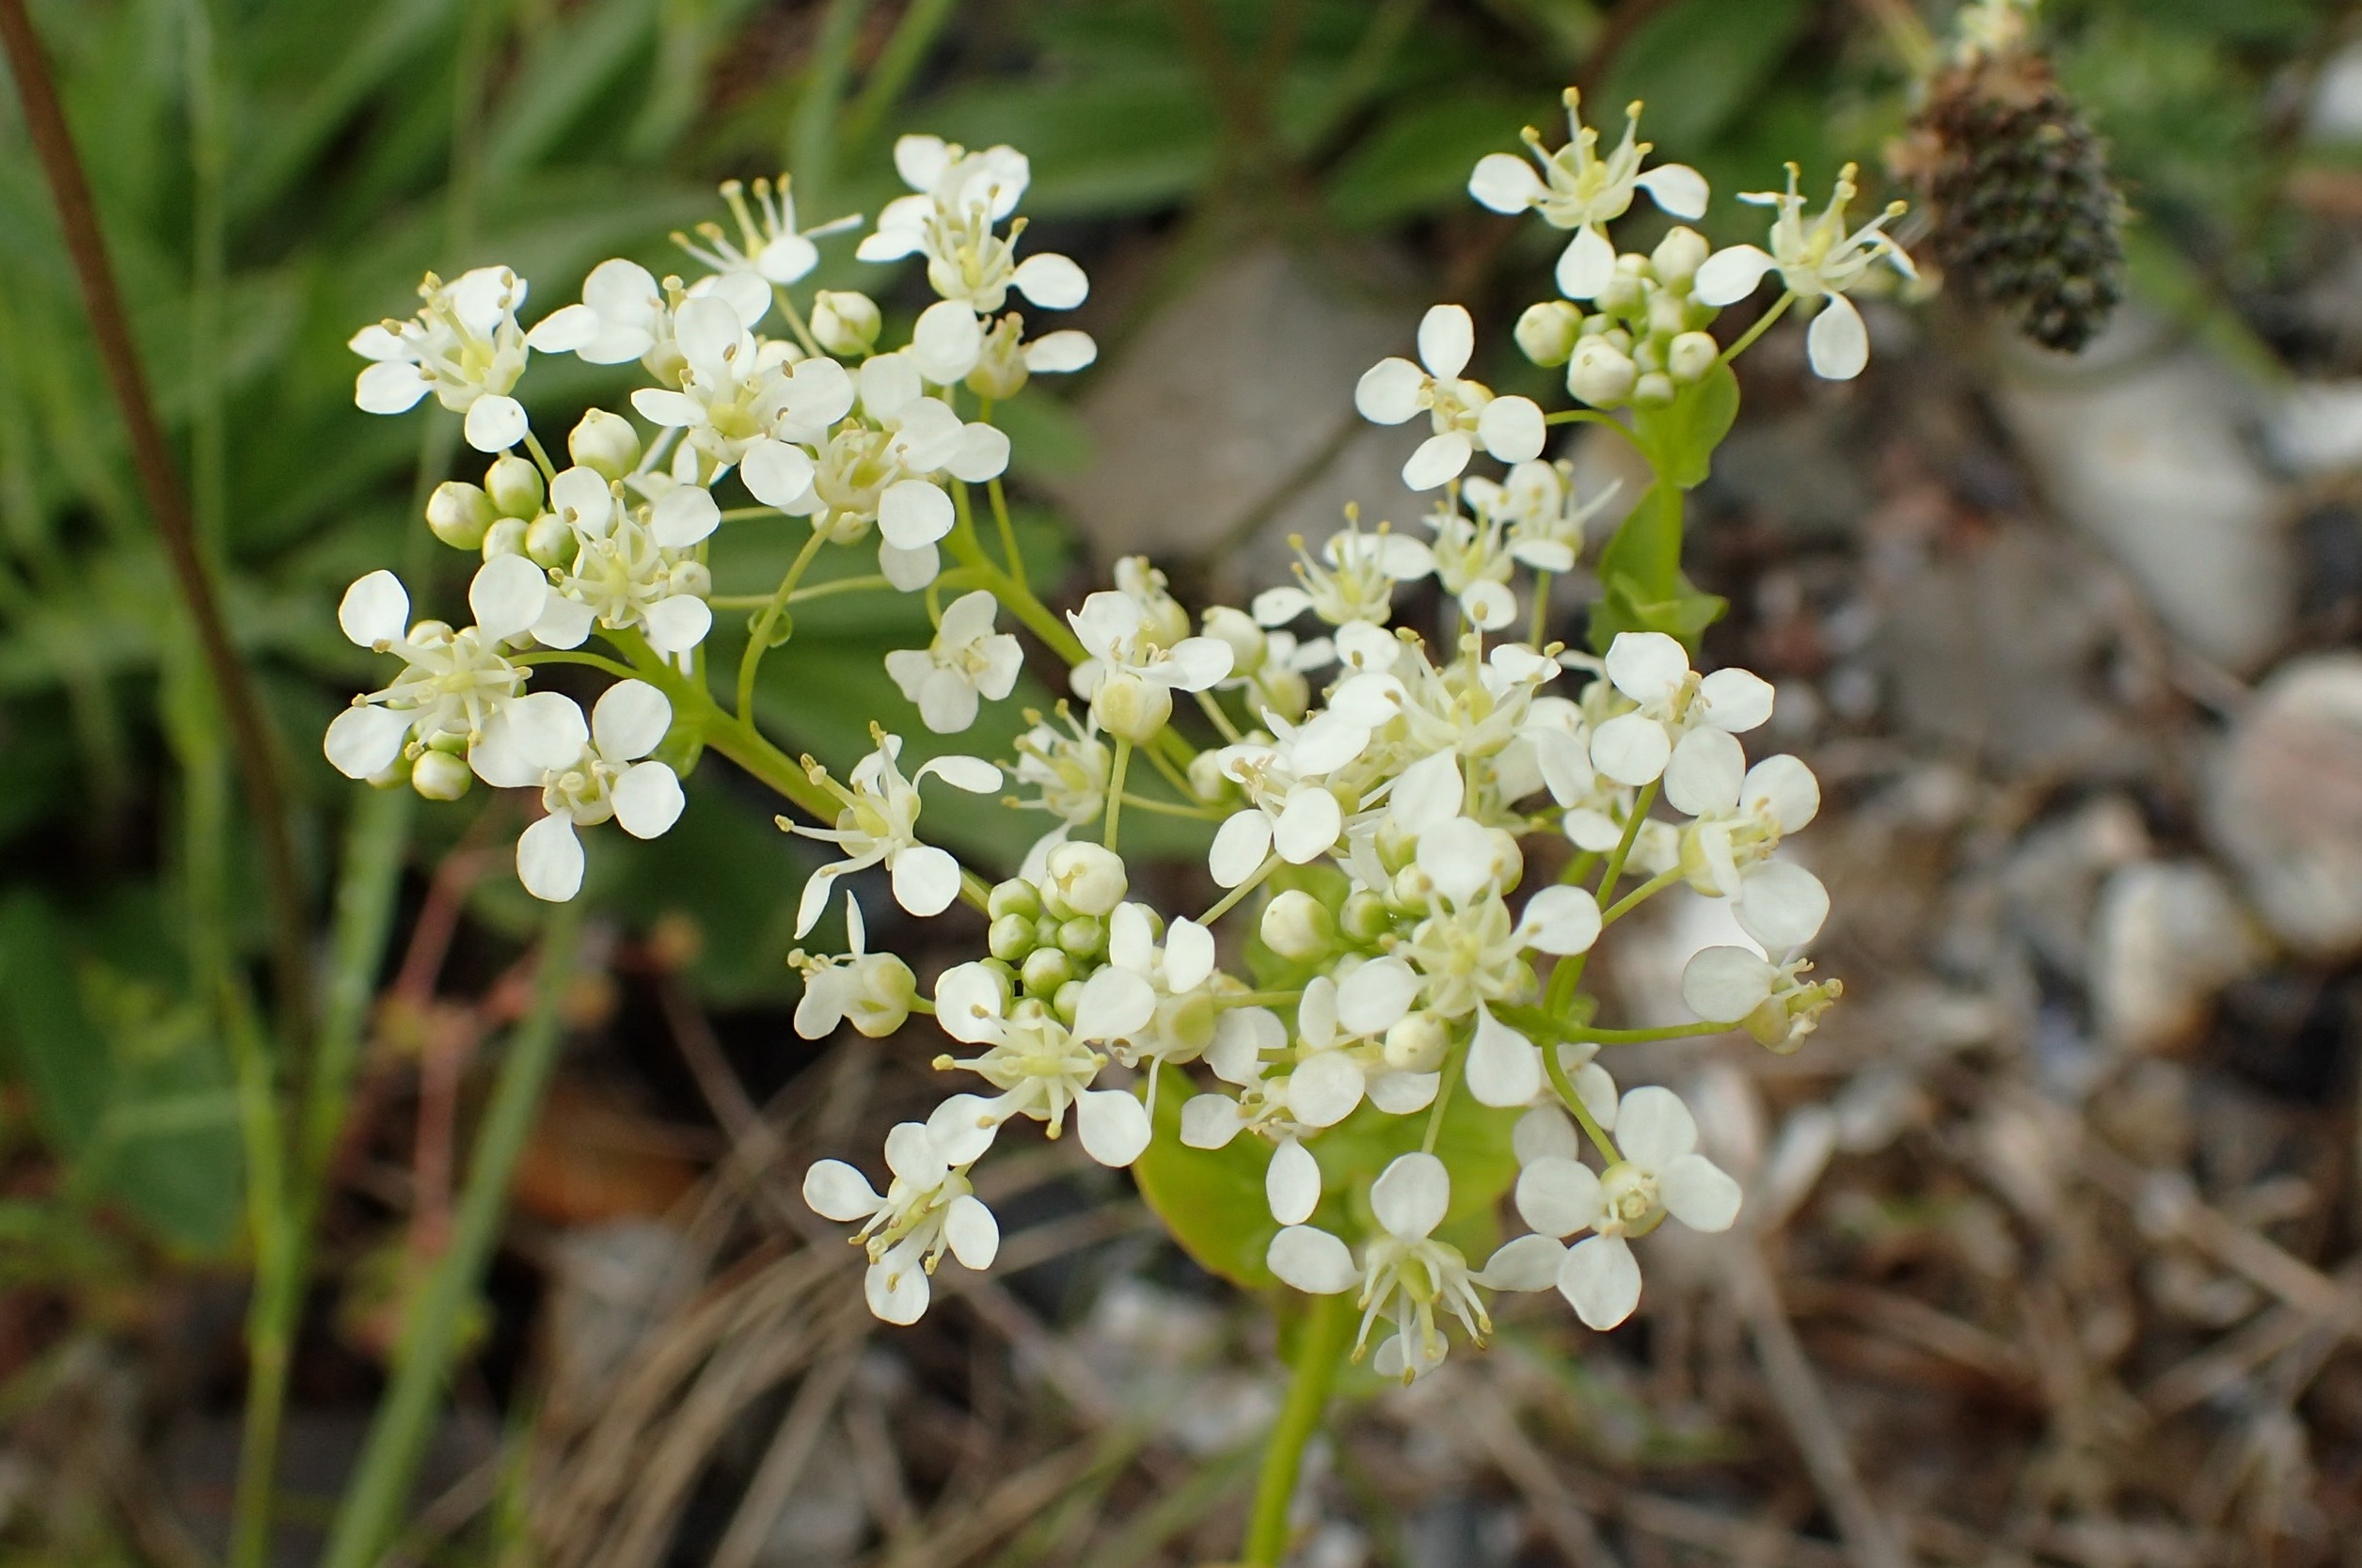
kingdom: Plantae
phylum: Tracheophyta
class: Magnoliopsida
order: Brassicales
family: Brassicaceae
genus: Lepidium
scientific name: Lepidium draba
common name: Hjerte-karse
